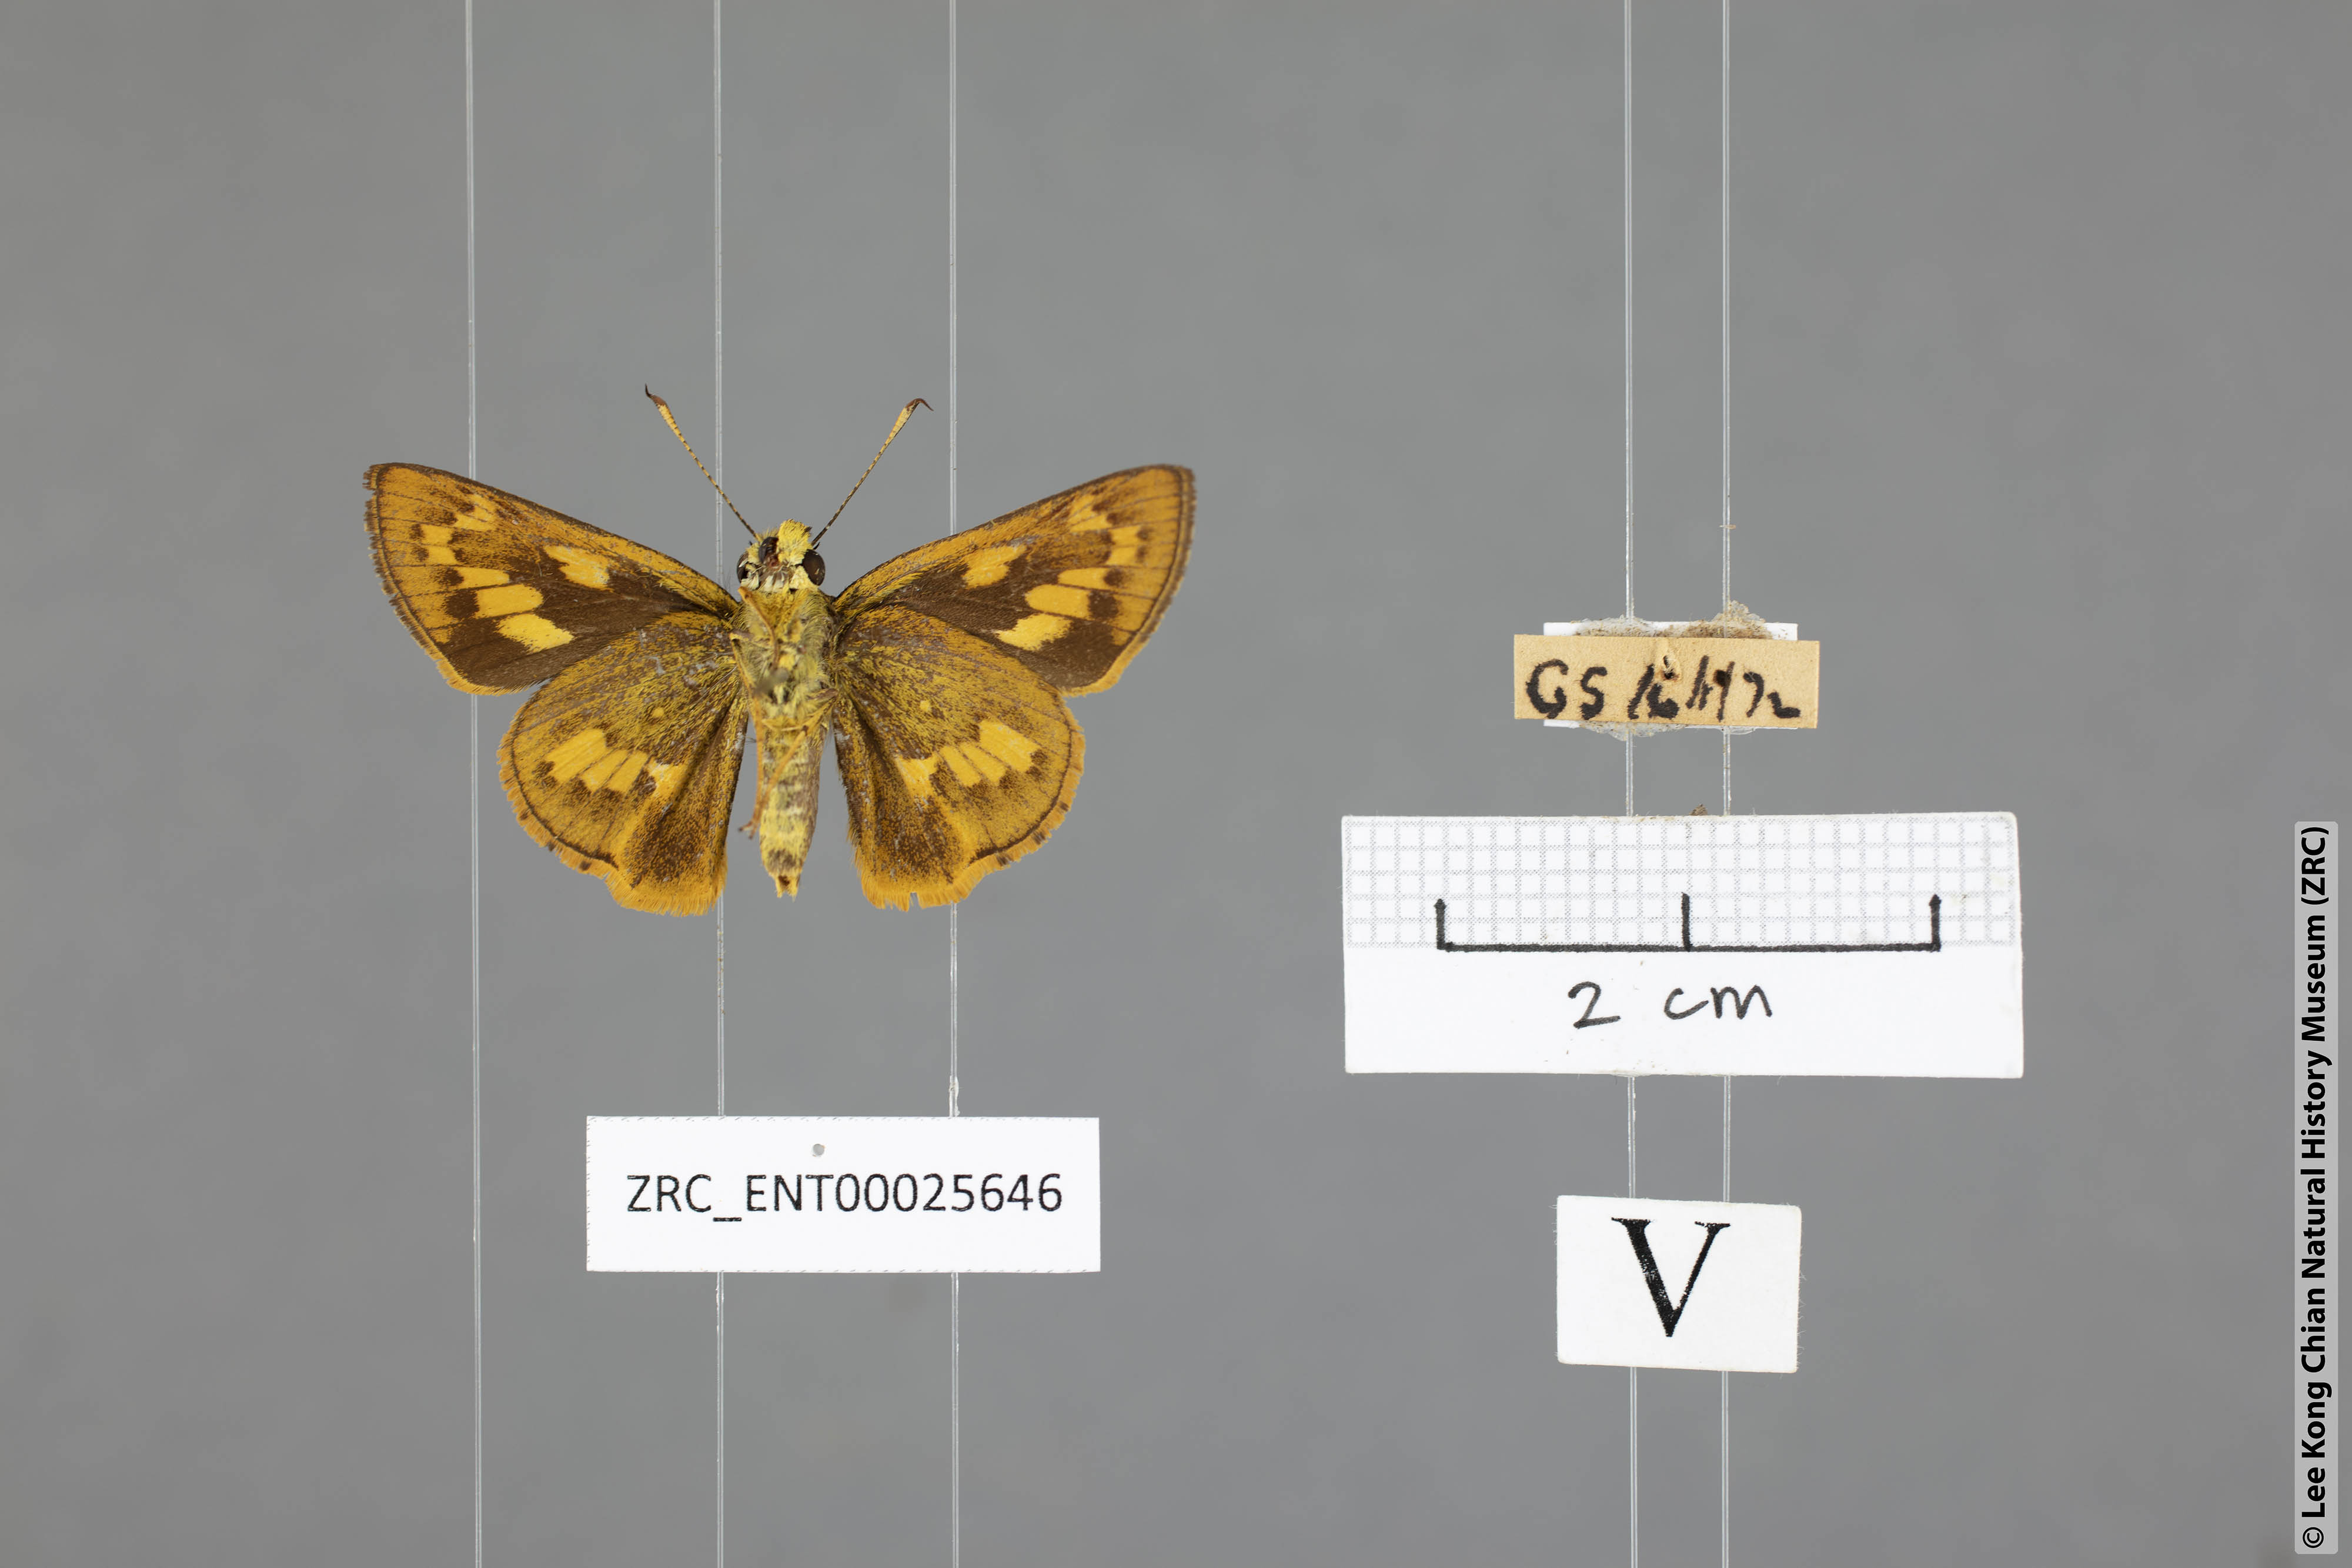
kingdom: Animalia
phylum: Arthropoda
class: Insecta
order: Lepidoptera
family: Hesperiidae
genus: Telicota
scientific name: Telicota besta
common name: Hainan palm dart
